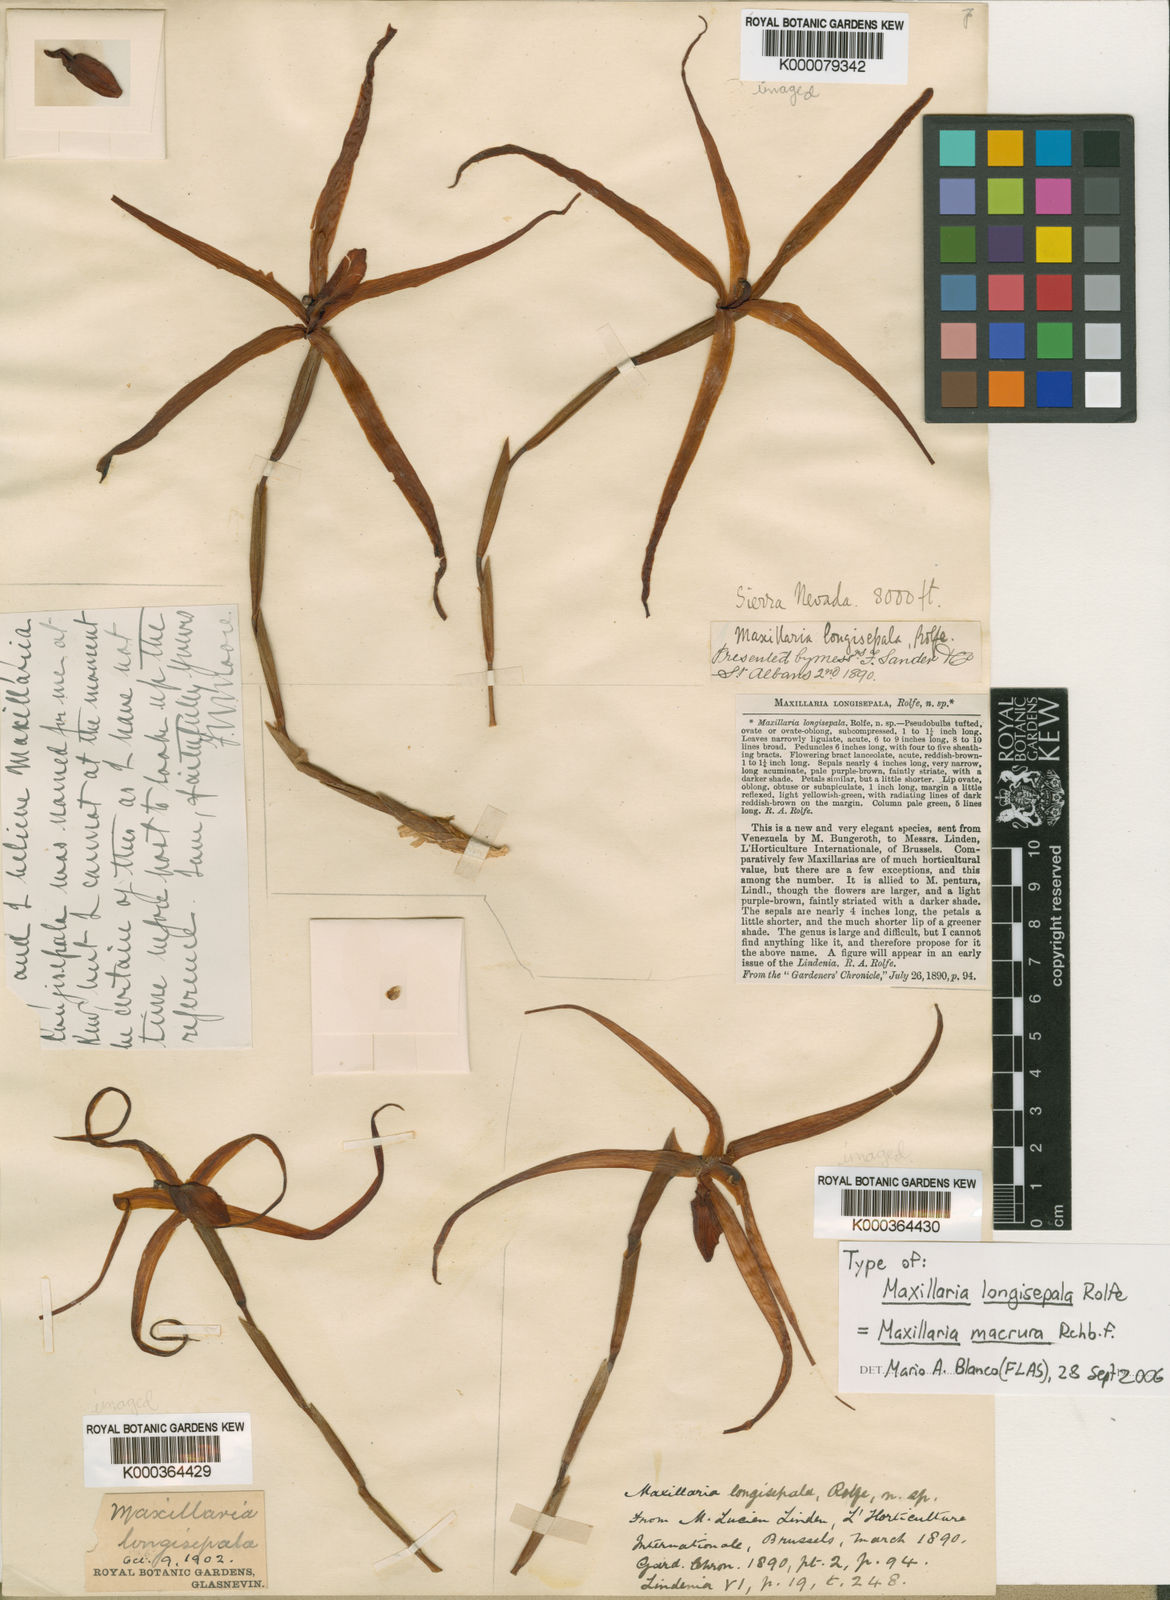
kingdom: Plantae
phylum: Tracheophyta
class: Liliopsida
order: Asparagales
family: Orchidaceae
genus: Maxillaria
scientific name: Maxillaria macrura
